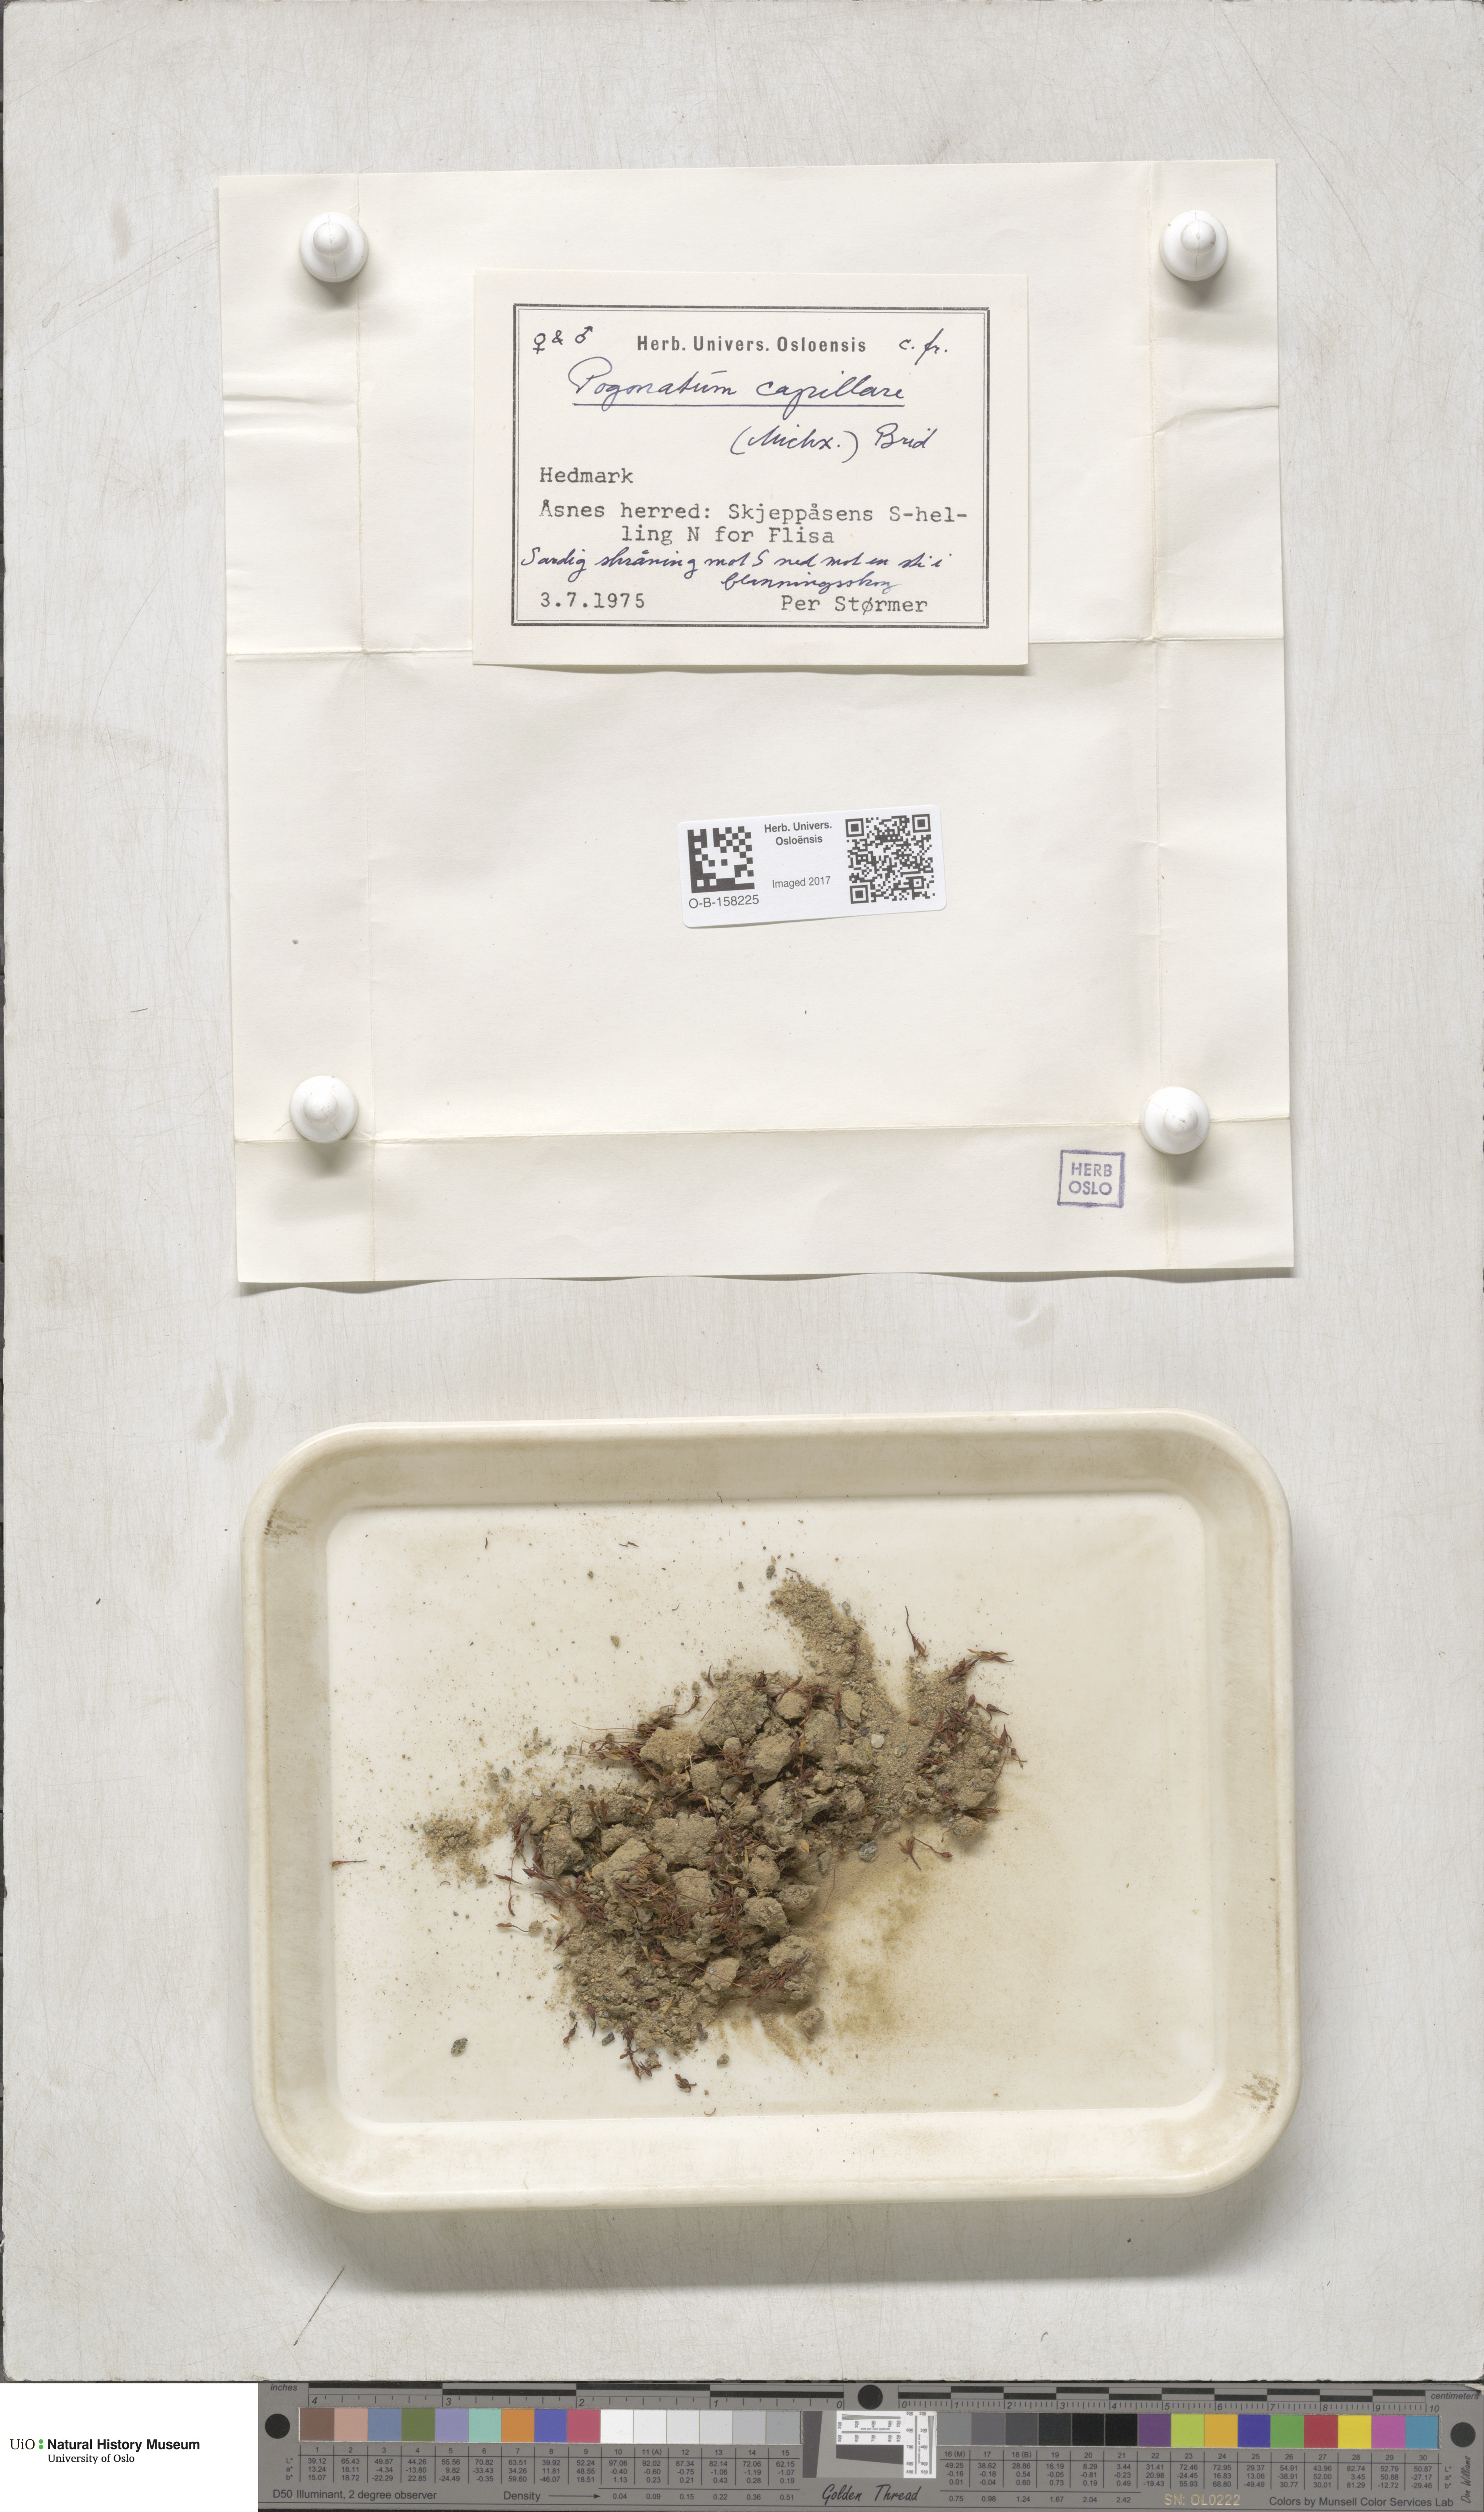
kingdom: Plantae
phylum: Bryophyta
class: Polytrichopsida
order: Polytrichales
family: Polytrichaceae
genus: Pogonatum
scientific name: Pogonatum dentatum
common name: Mountain hair moss
